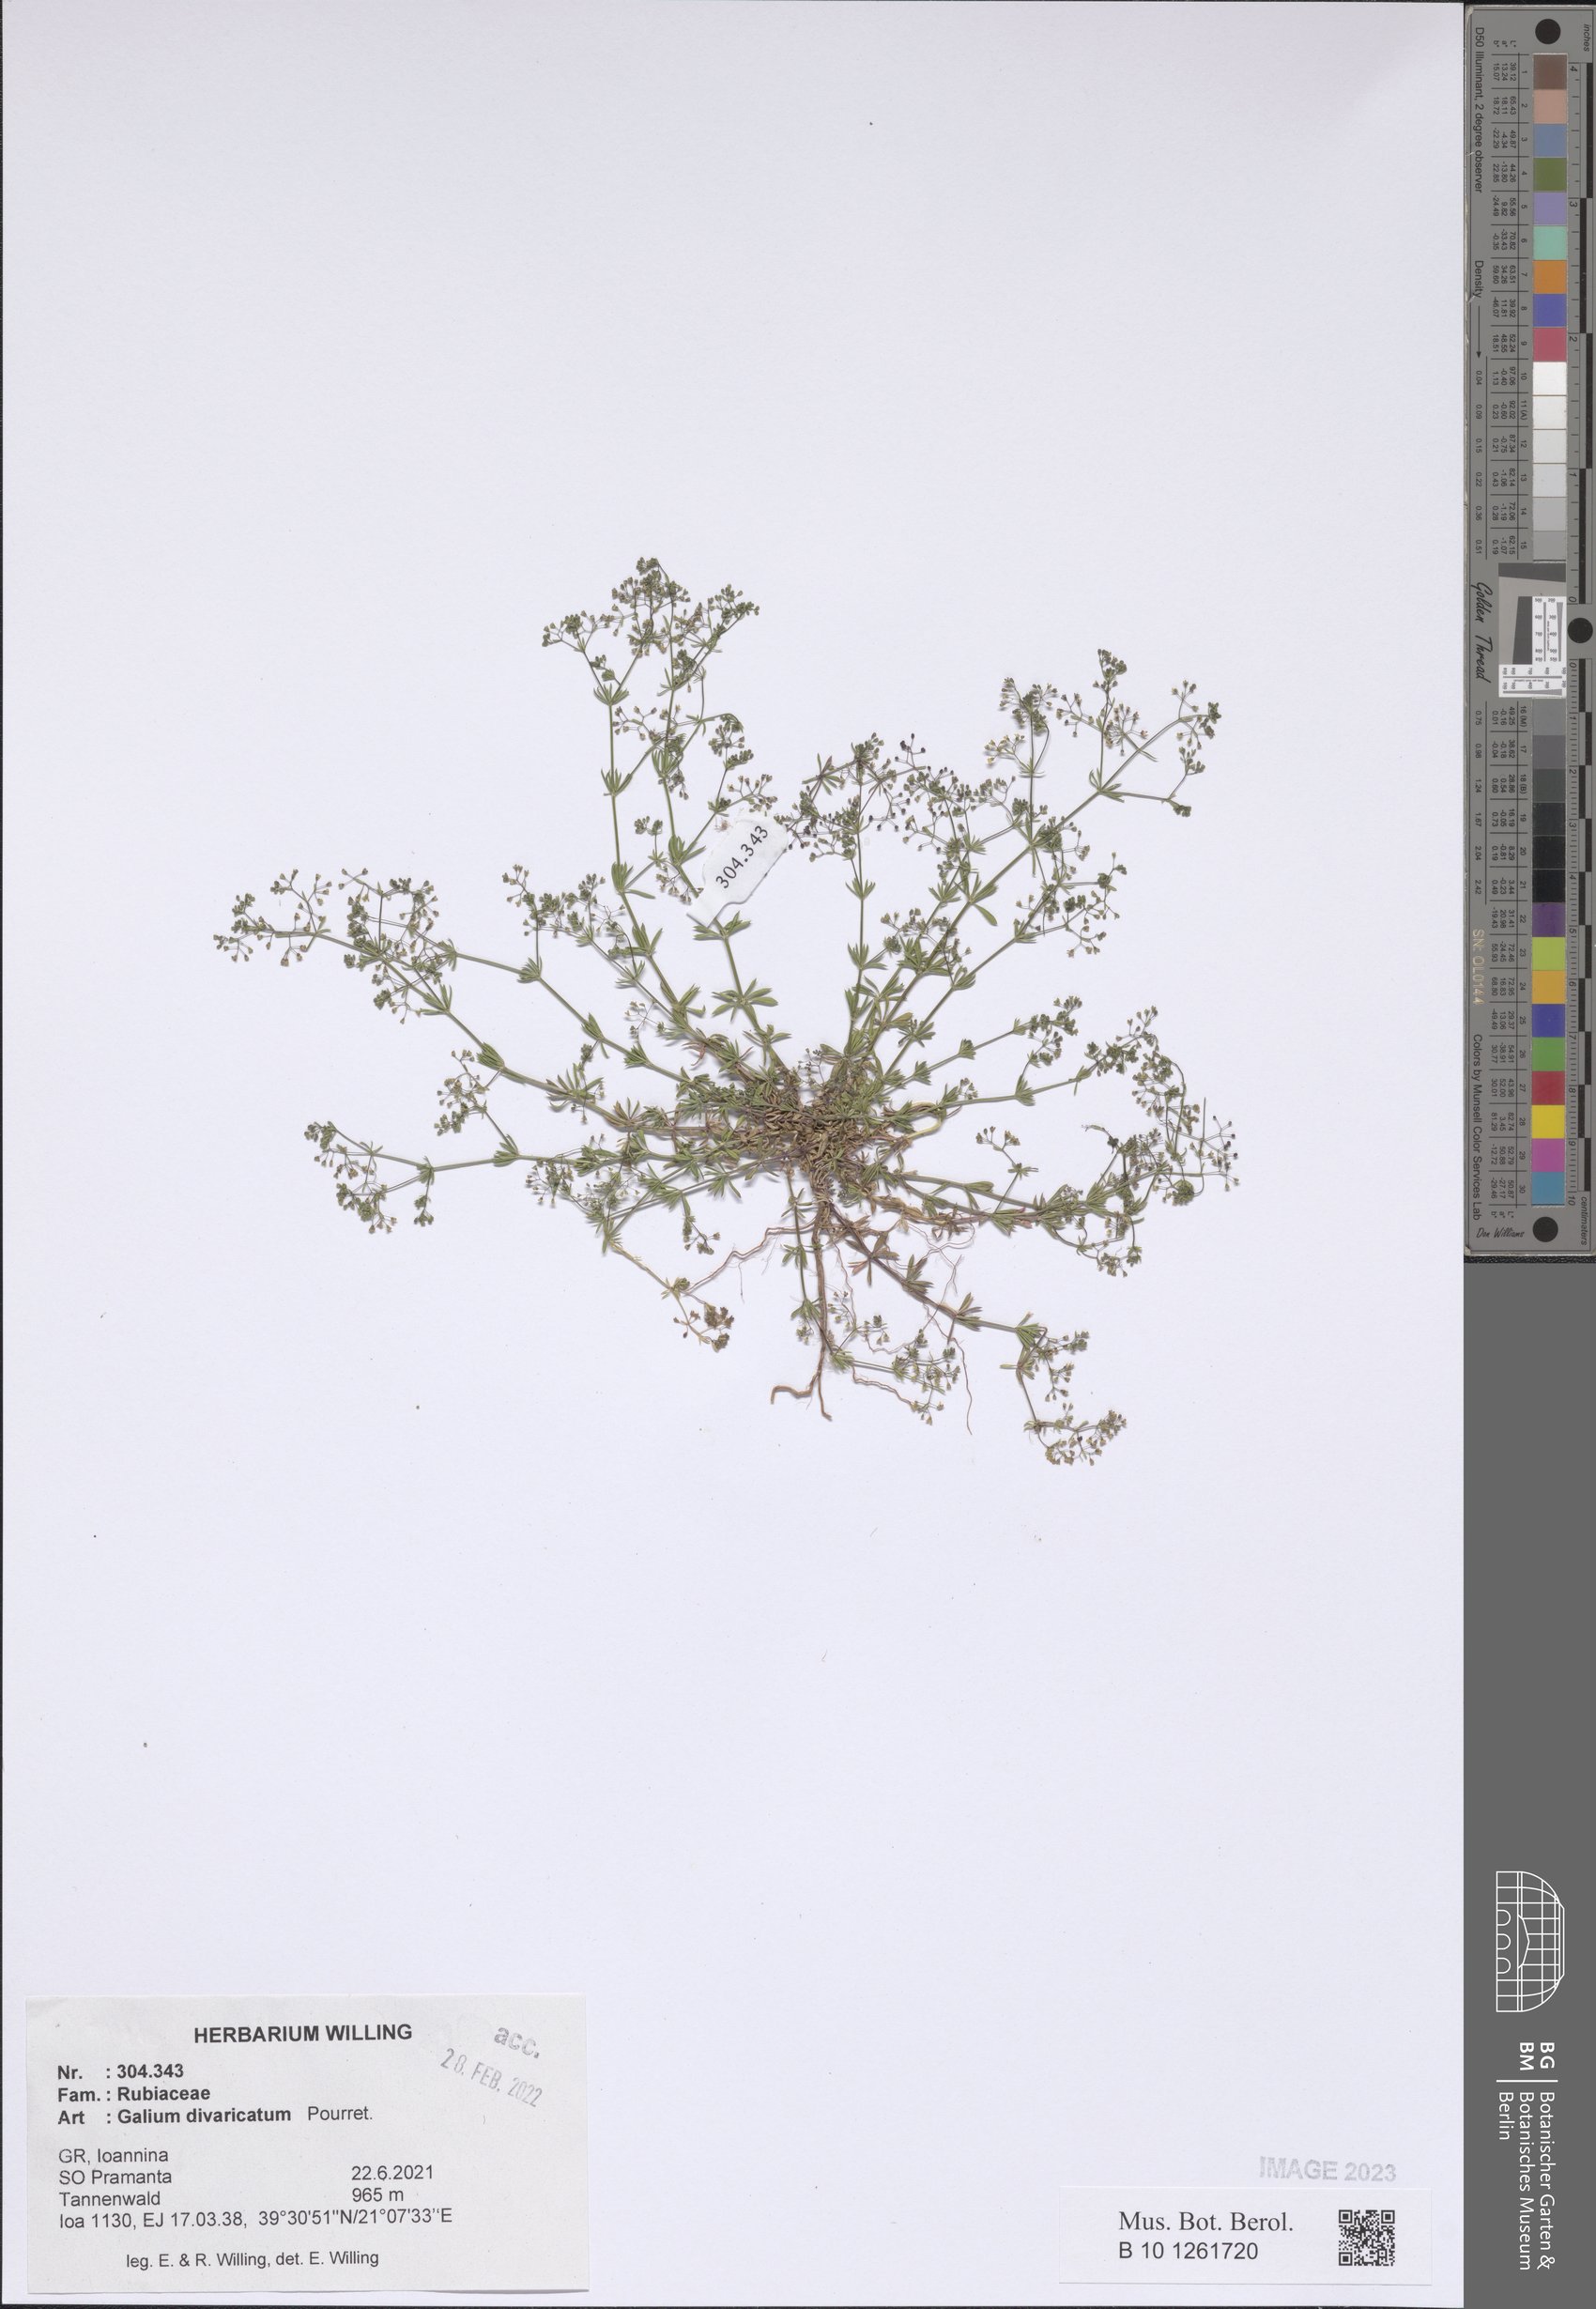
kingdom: Plantae
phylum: Tracheophyta
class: Magnoliopsida
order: Gentianales
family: Rubiaceae
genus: Galium
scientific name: Galium divaricatum
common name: Lamarck's bedstraw
